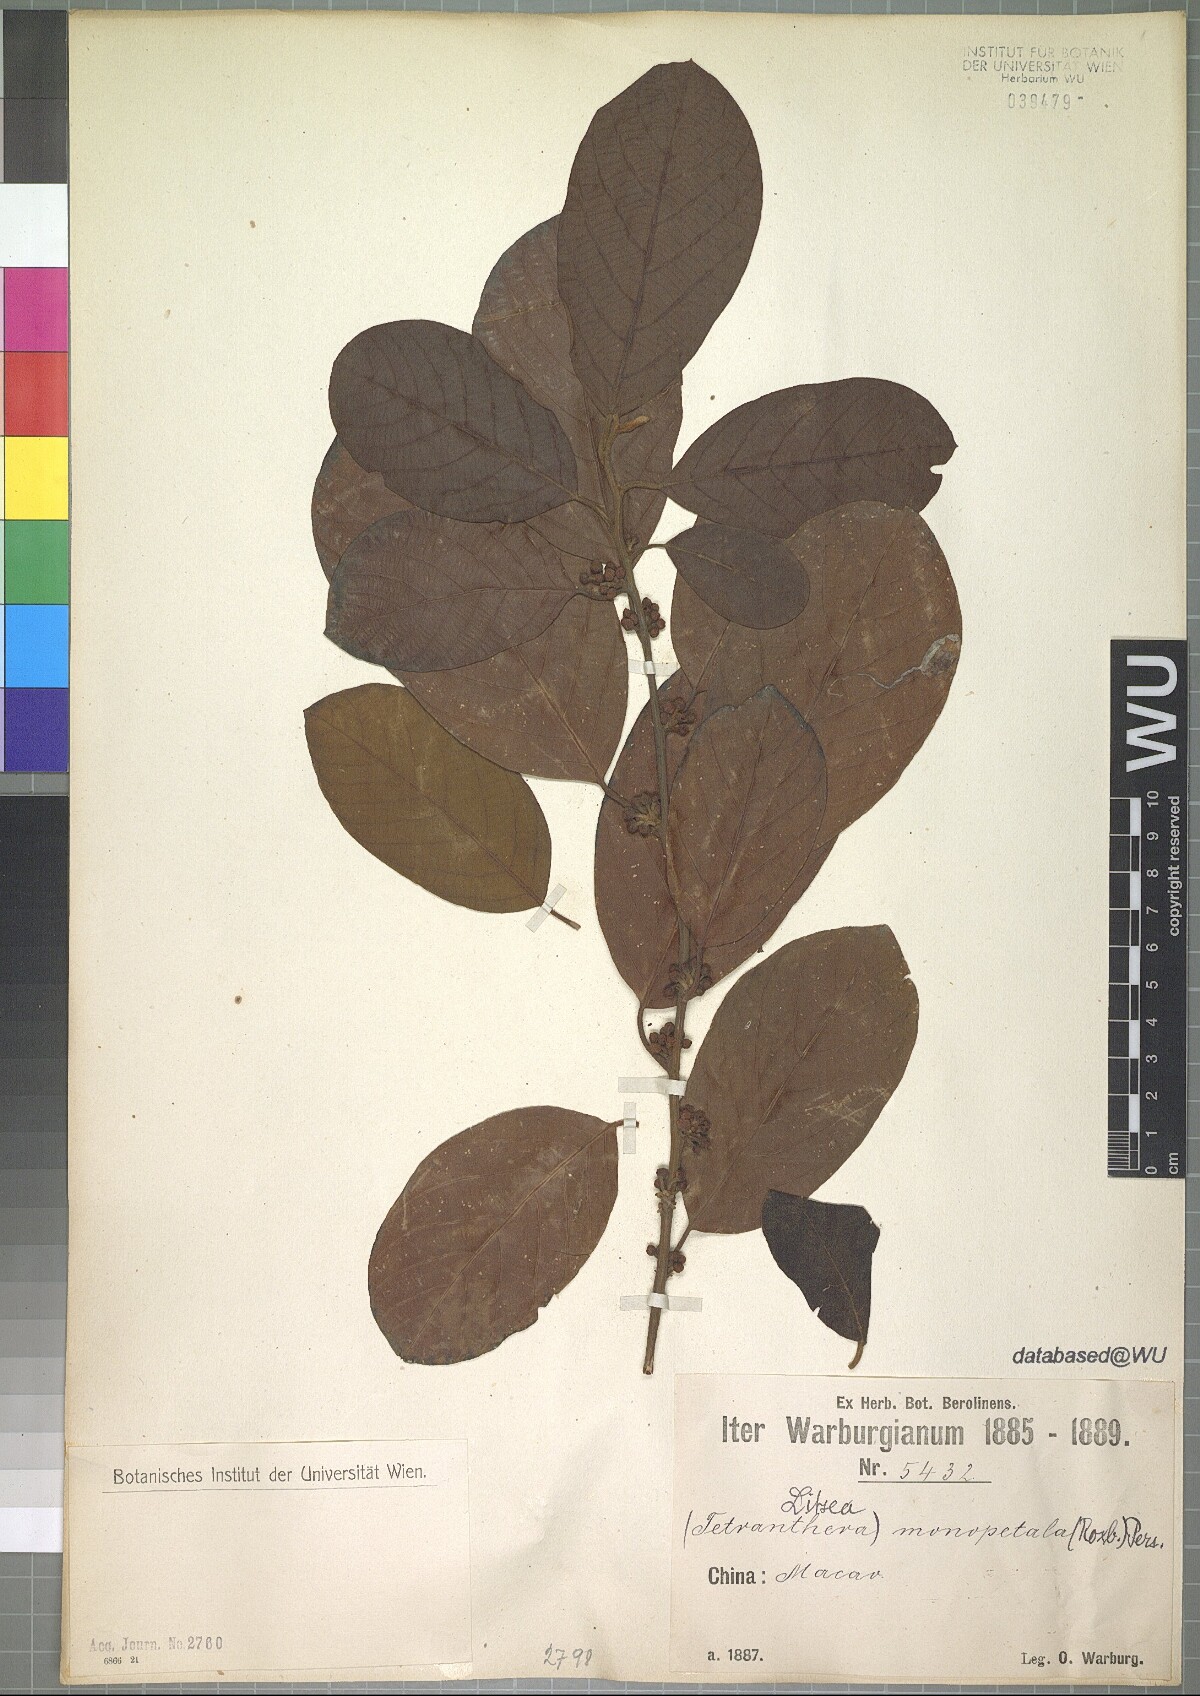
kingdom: Plantae
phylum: Tracheophyta
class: Magnoliopsida
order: Laurales
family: Lauraceae
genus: Litsea
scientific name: Litsea monopetala
